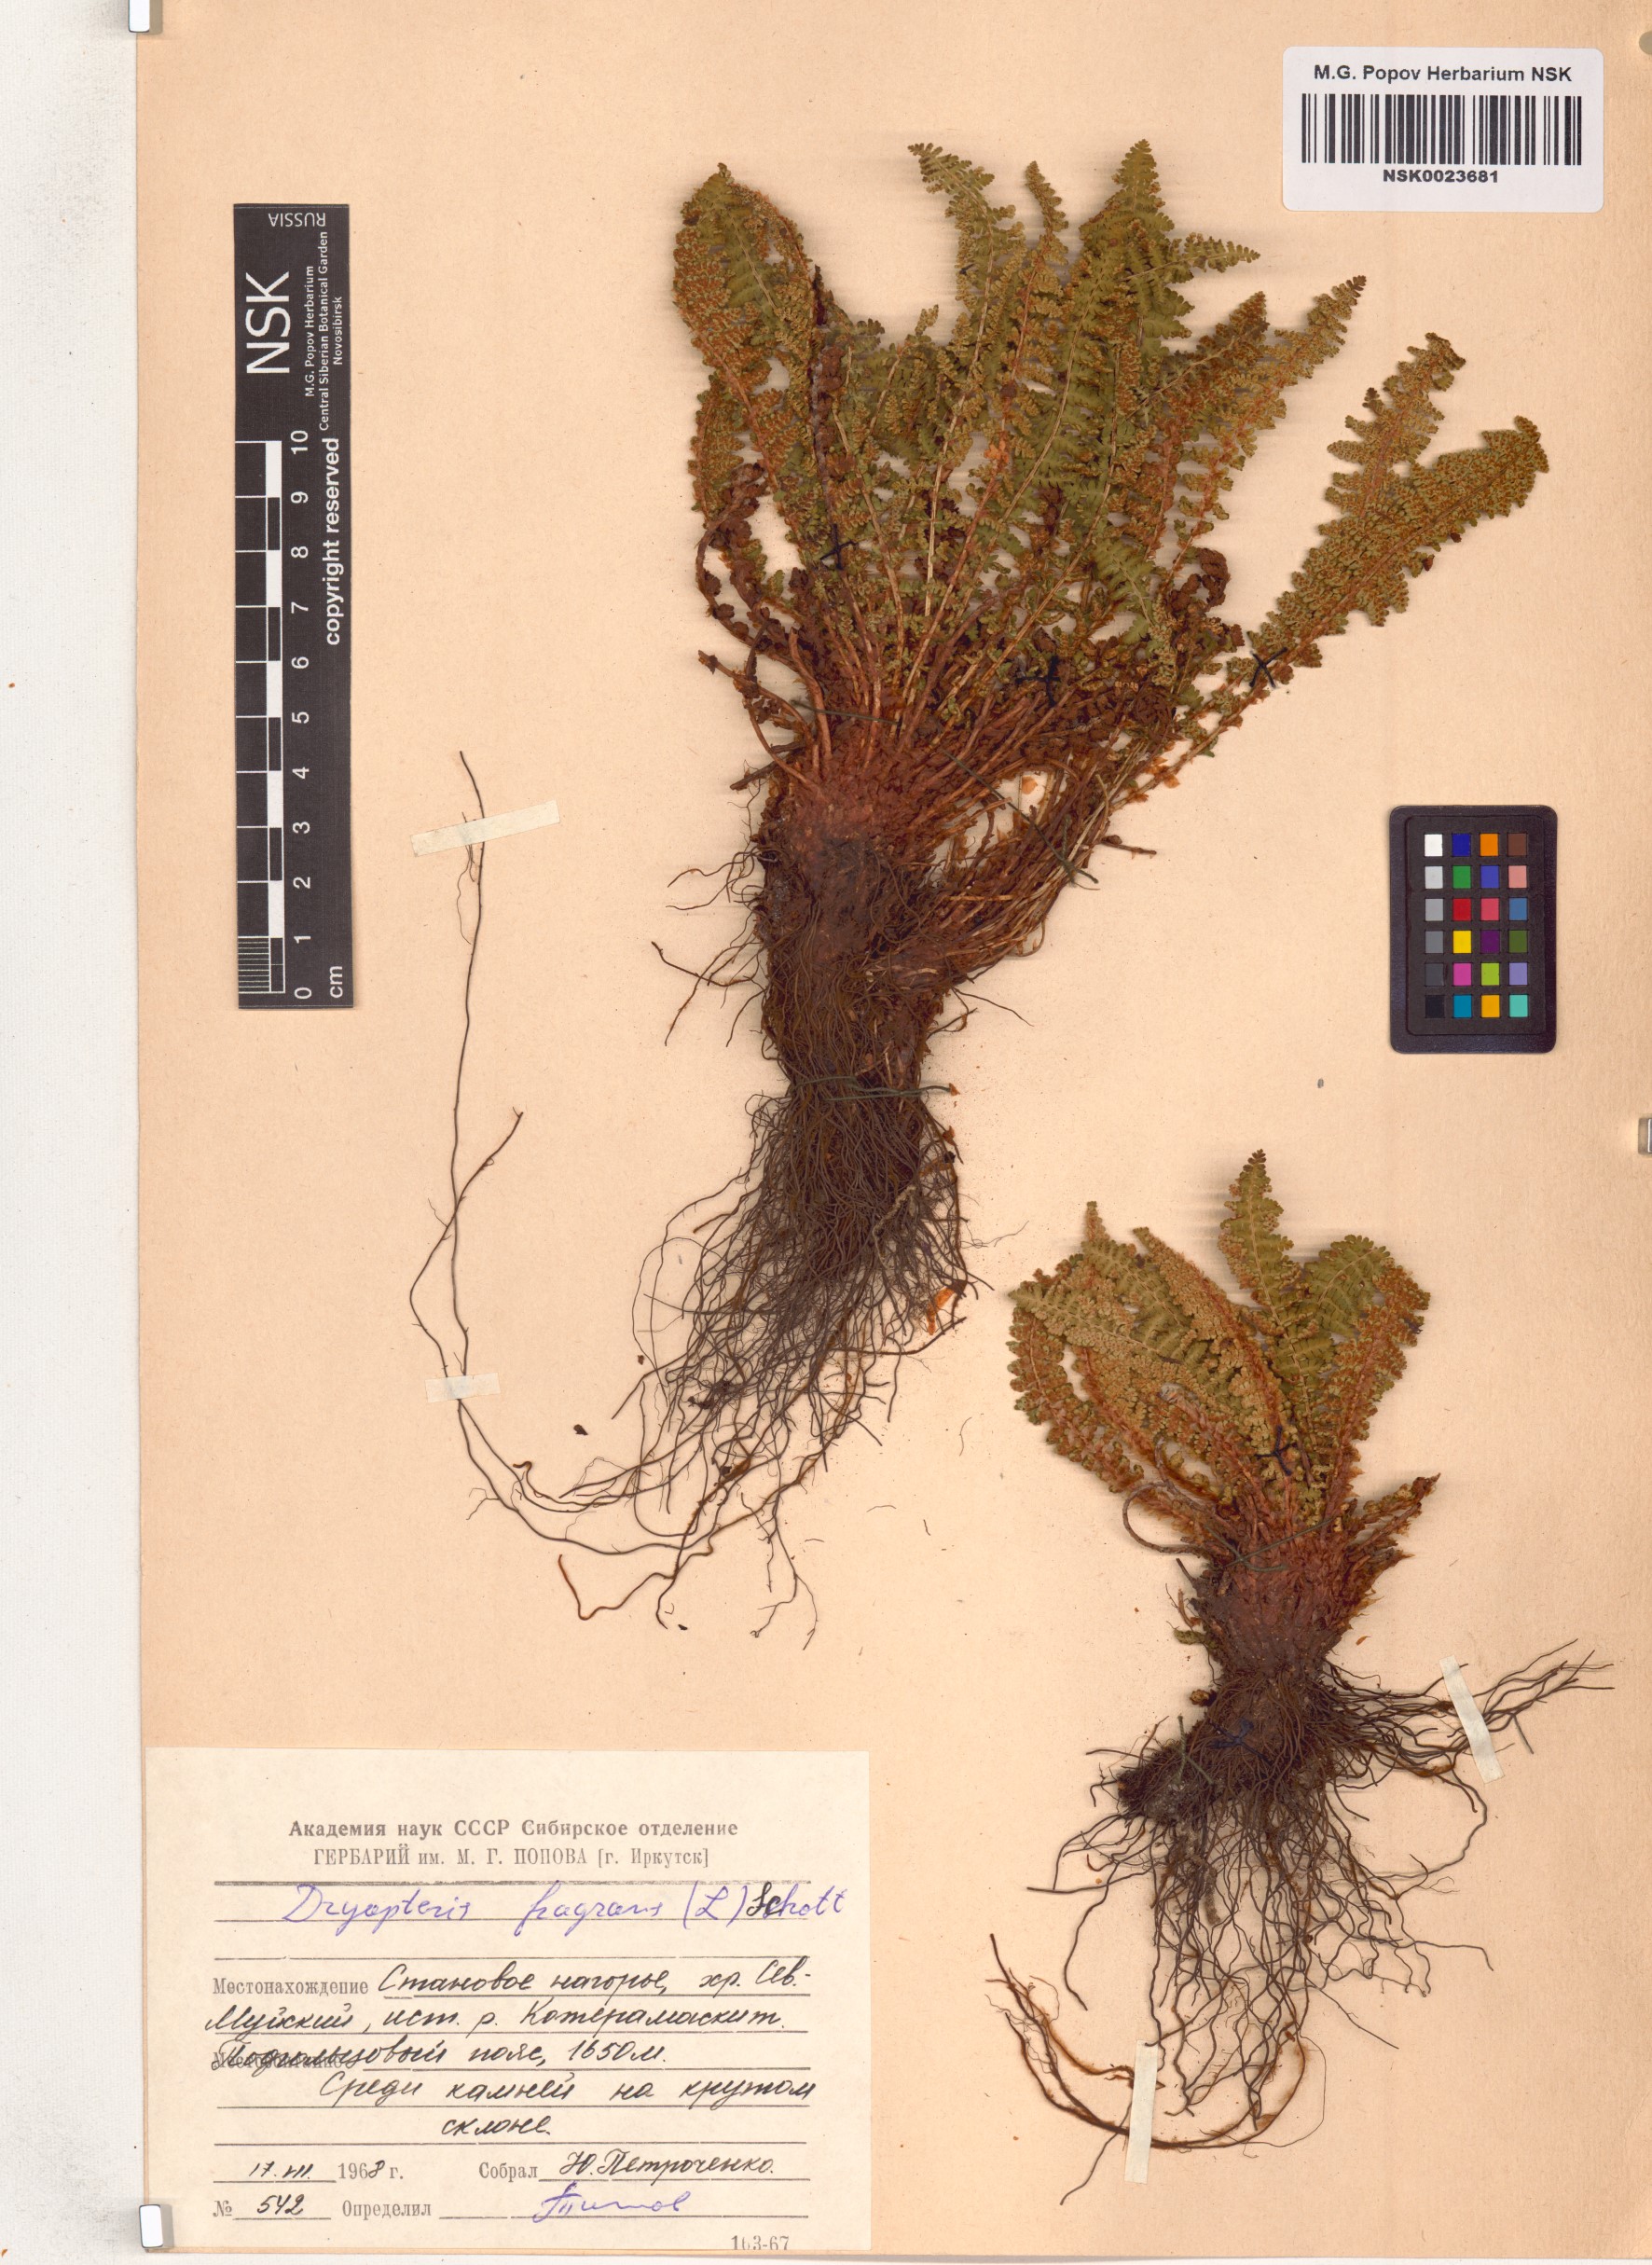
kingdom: Plantae
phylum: Tracheophyta
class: Polypodiopsida
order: Polypodiales
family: Dryopteridaceae
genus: Dryopteris
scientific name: Dryopteris fragrans
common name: Fragrant wood fern
